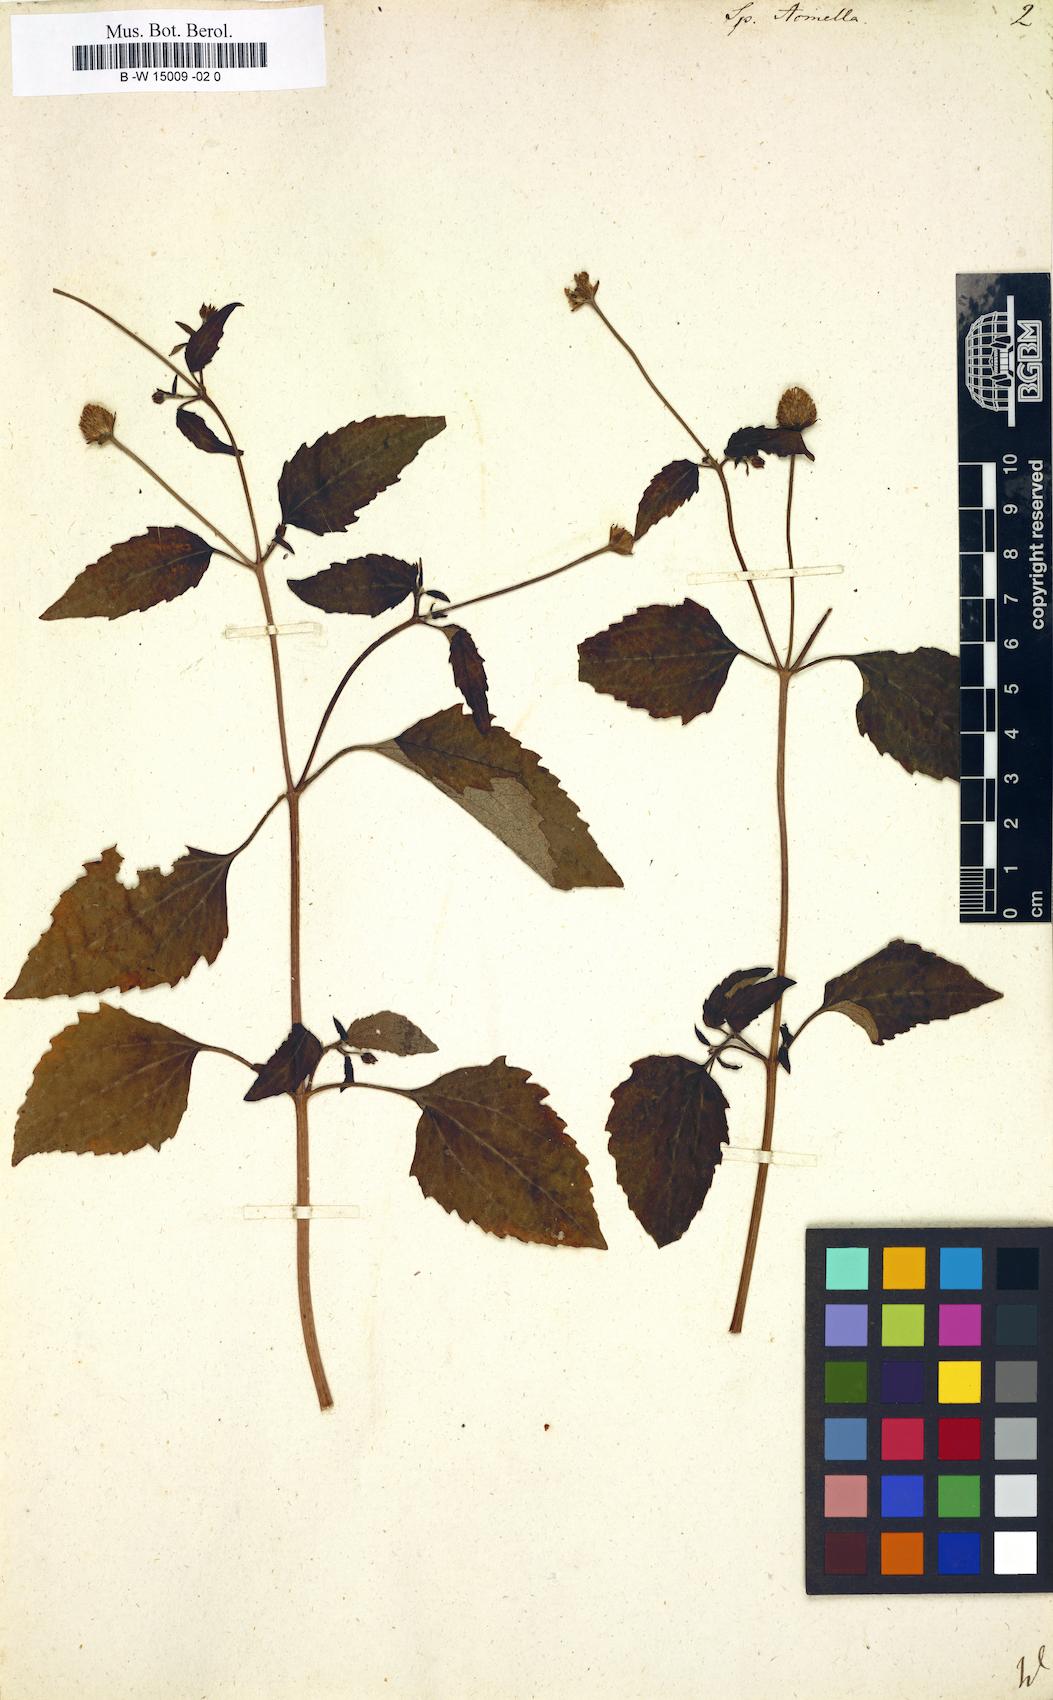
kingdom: Plantae
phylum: Tracheophyta
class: Magnoliopsida
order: Asterales
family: Asteraceae
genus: Spilanthes
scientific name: Spilanthes acmella
